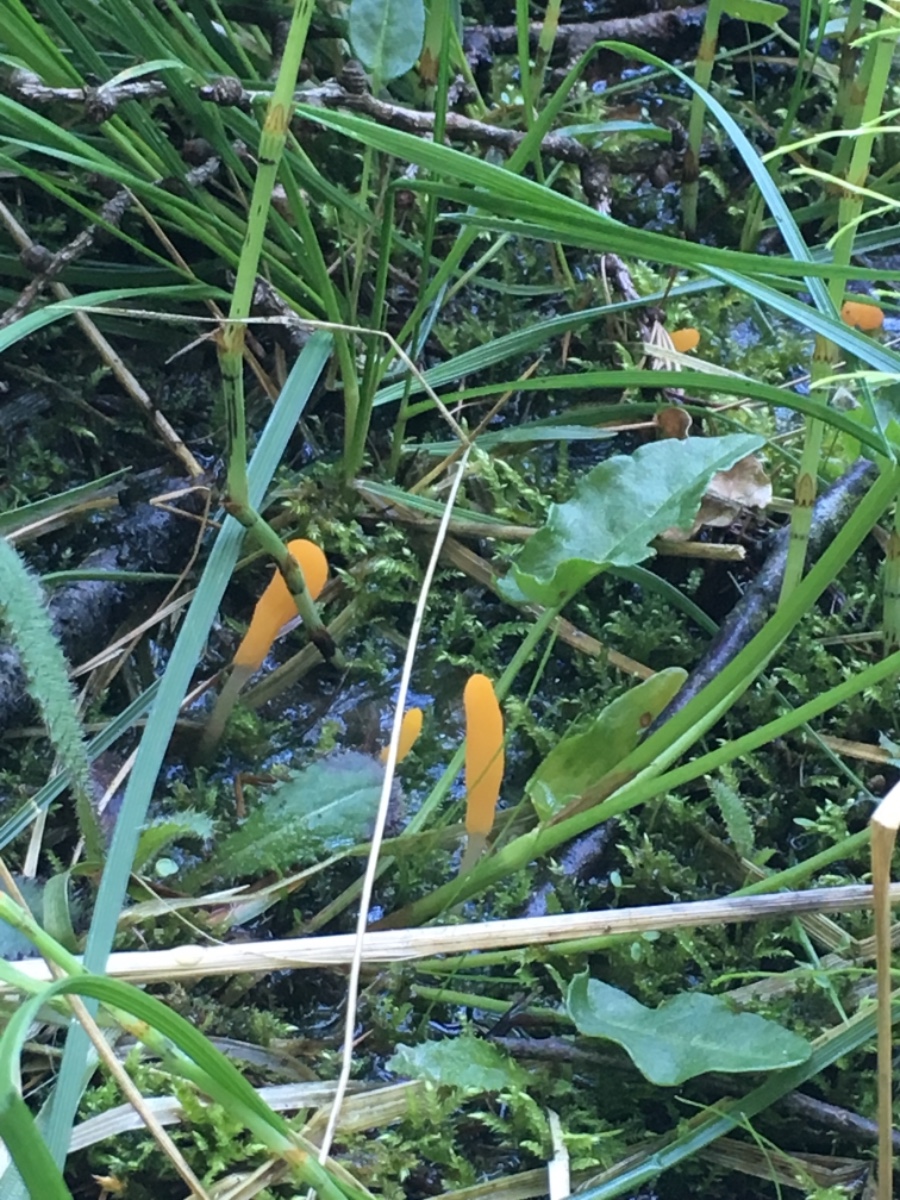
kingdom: Fungi
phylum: Ascomycota
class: Leotiomycetes
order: Helotiales
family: Cenangiaceae
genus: Mitrula
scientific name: Mitrula paludosa
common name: gul nøkketunge
